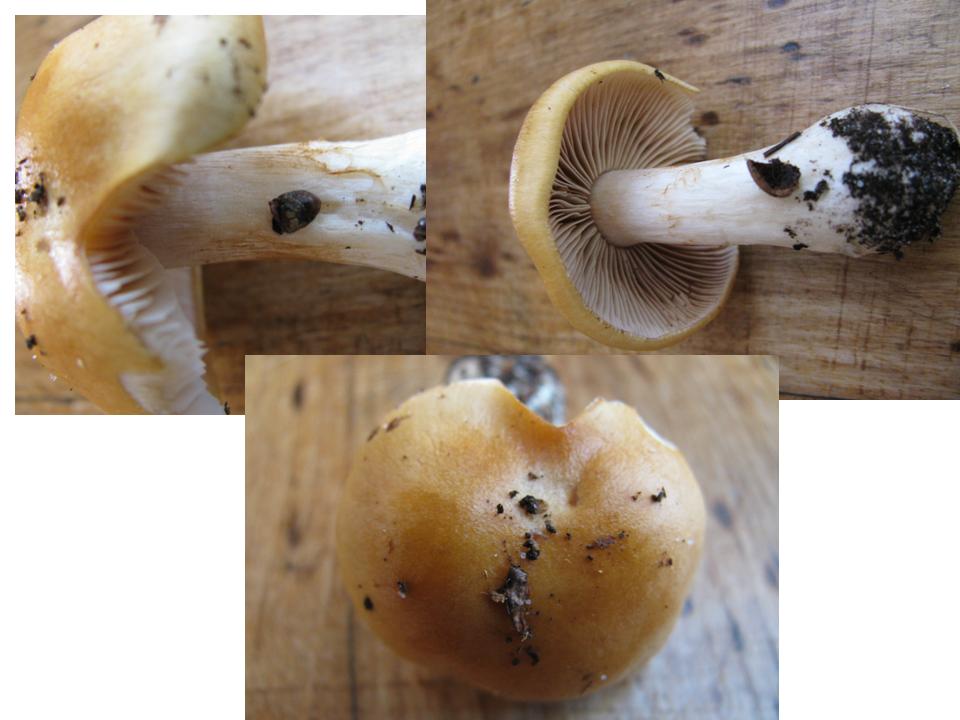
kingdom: Fungi
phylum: Basidiomycota
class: Agaricomycetes
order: Agaricales
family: Cortinariaceae
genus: Thaxterogaster
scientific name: Thaxterogaster
